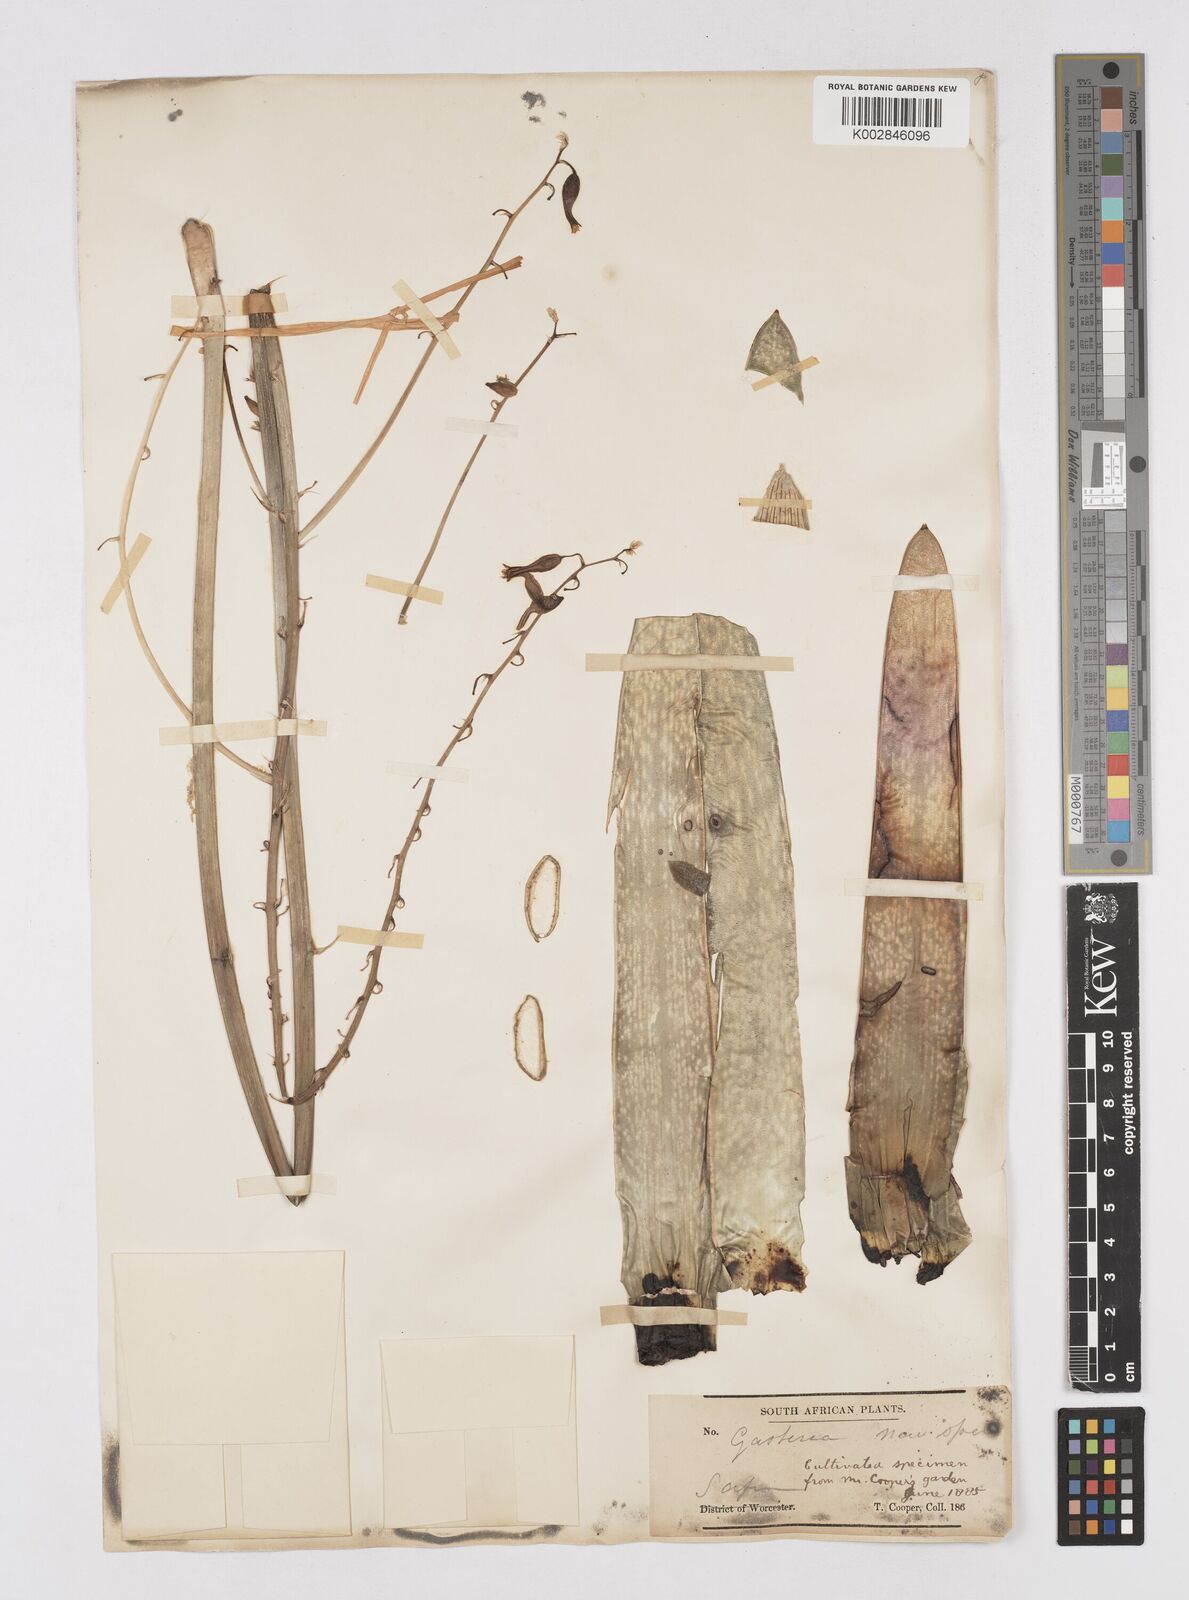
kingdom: Plantae
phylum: Tracheophyta
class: Liliopsida
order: Asparagales
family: Asphodelaceae
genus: Gasteria
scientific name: Gasteria
